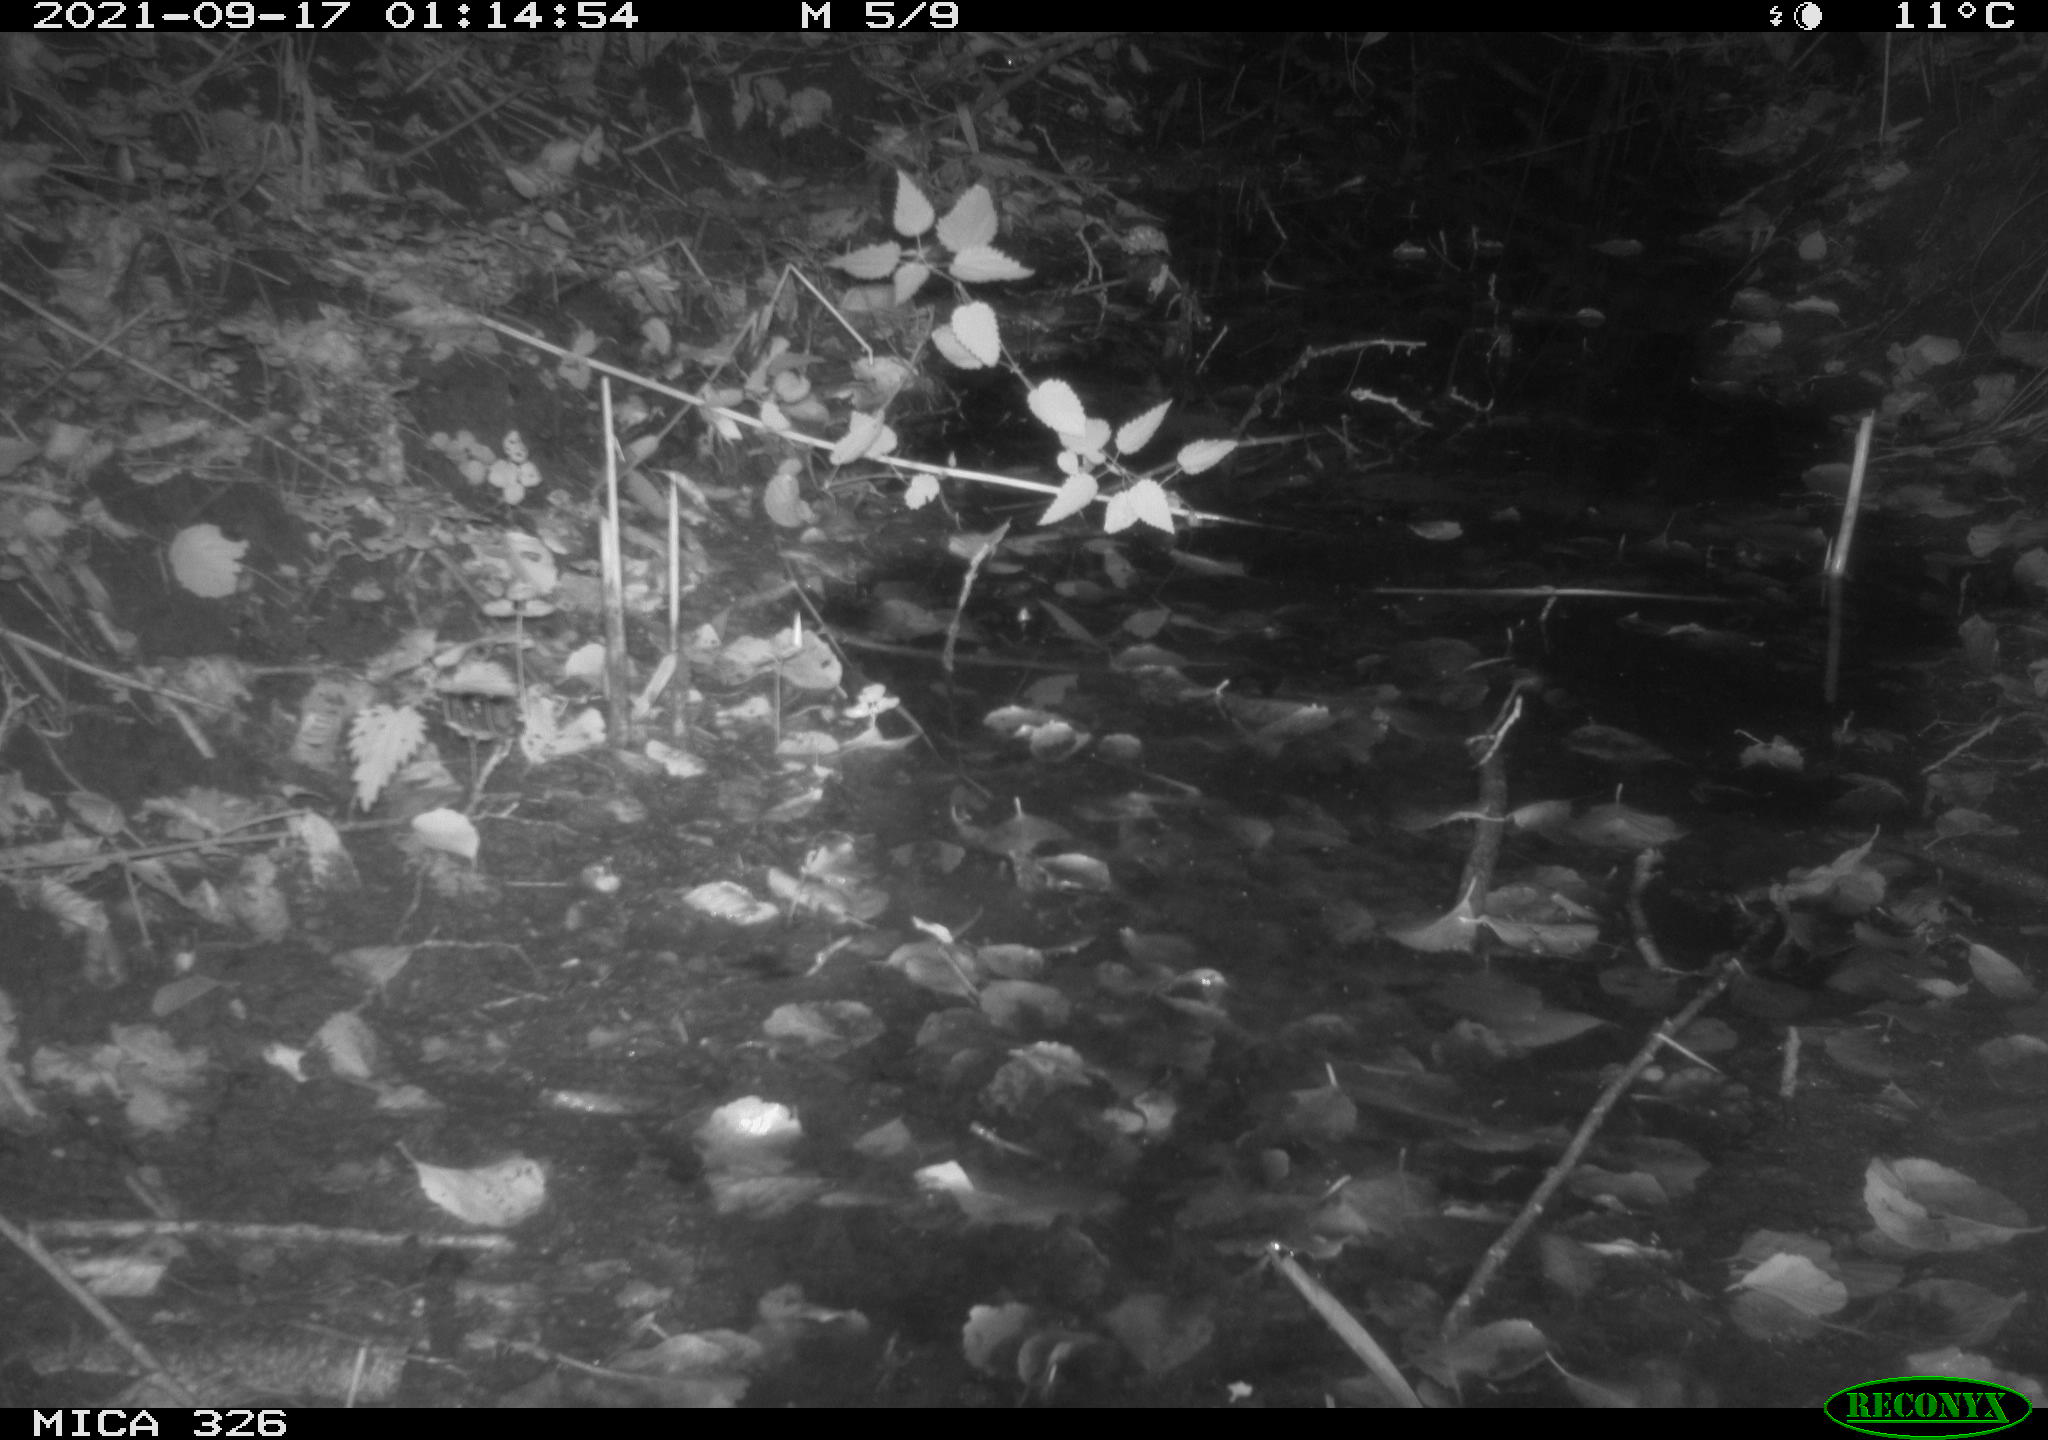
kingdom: Animalia
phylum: Chordata
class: Mammalia
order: Rodentia
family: Muridae
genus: Rattus
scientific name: Rattus norvegicus
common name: Brown rat
